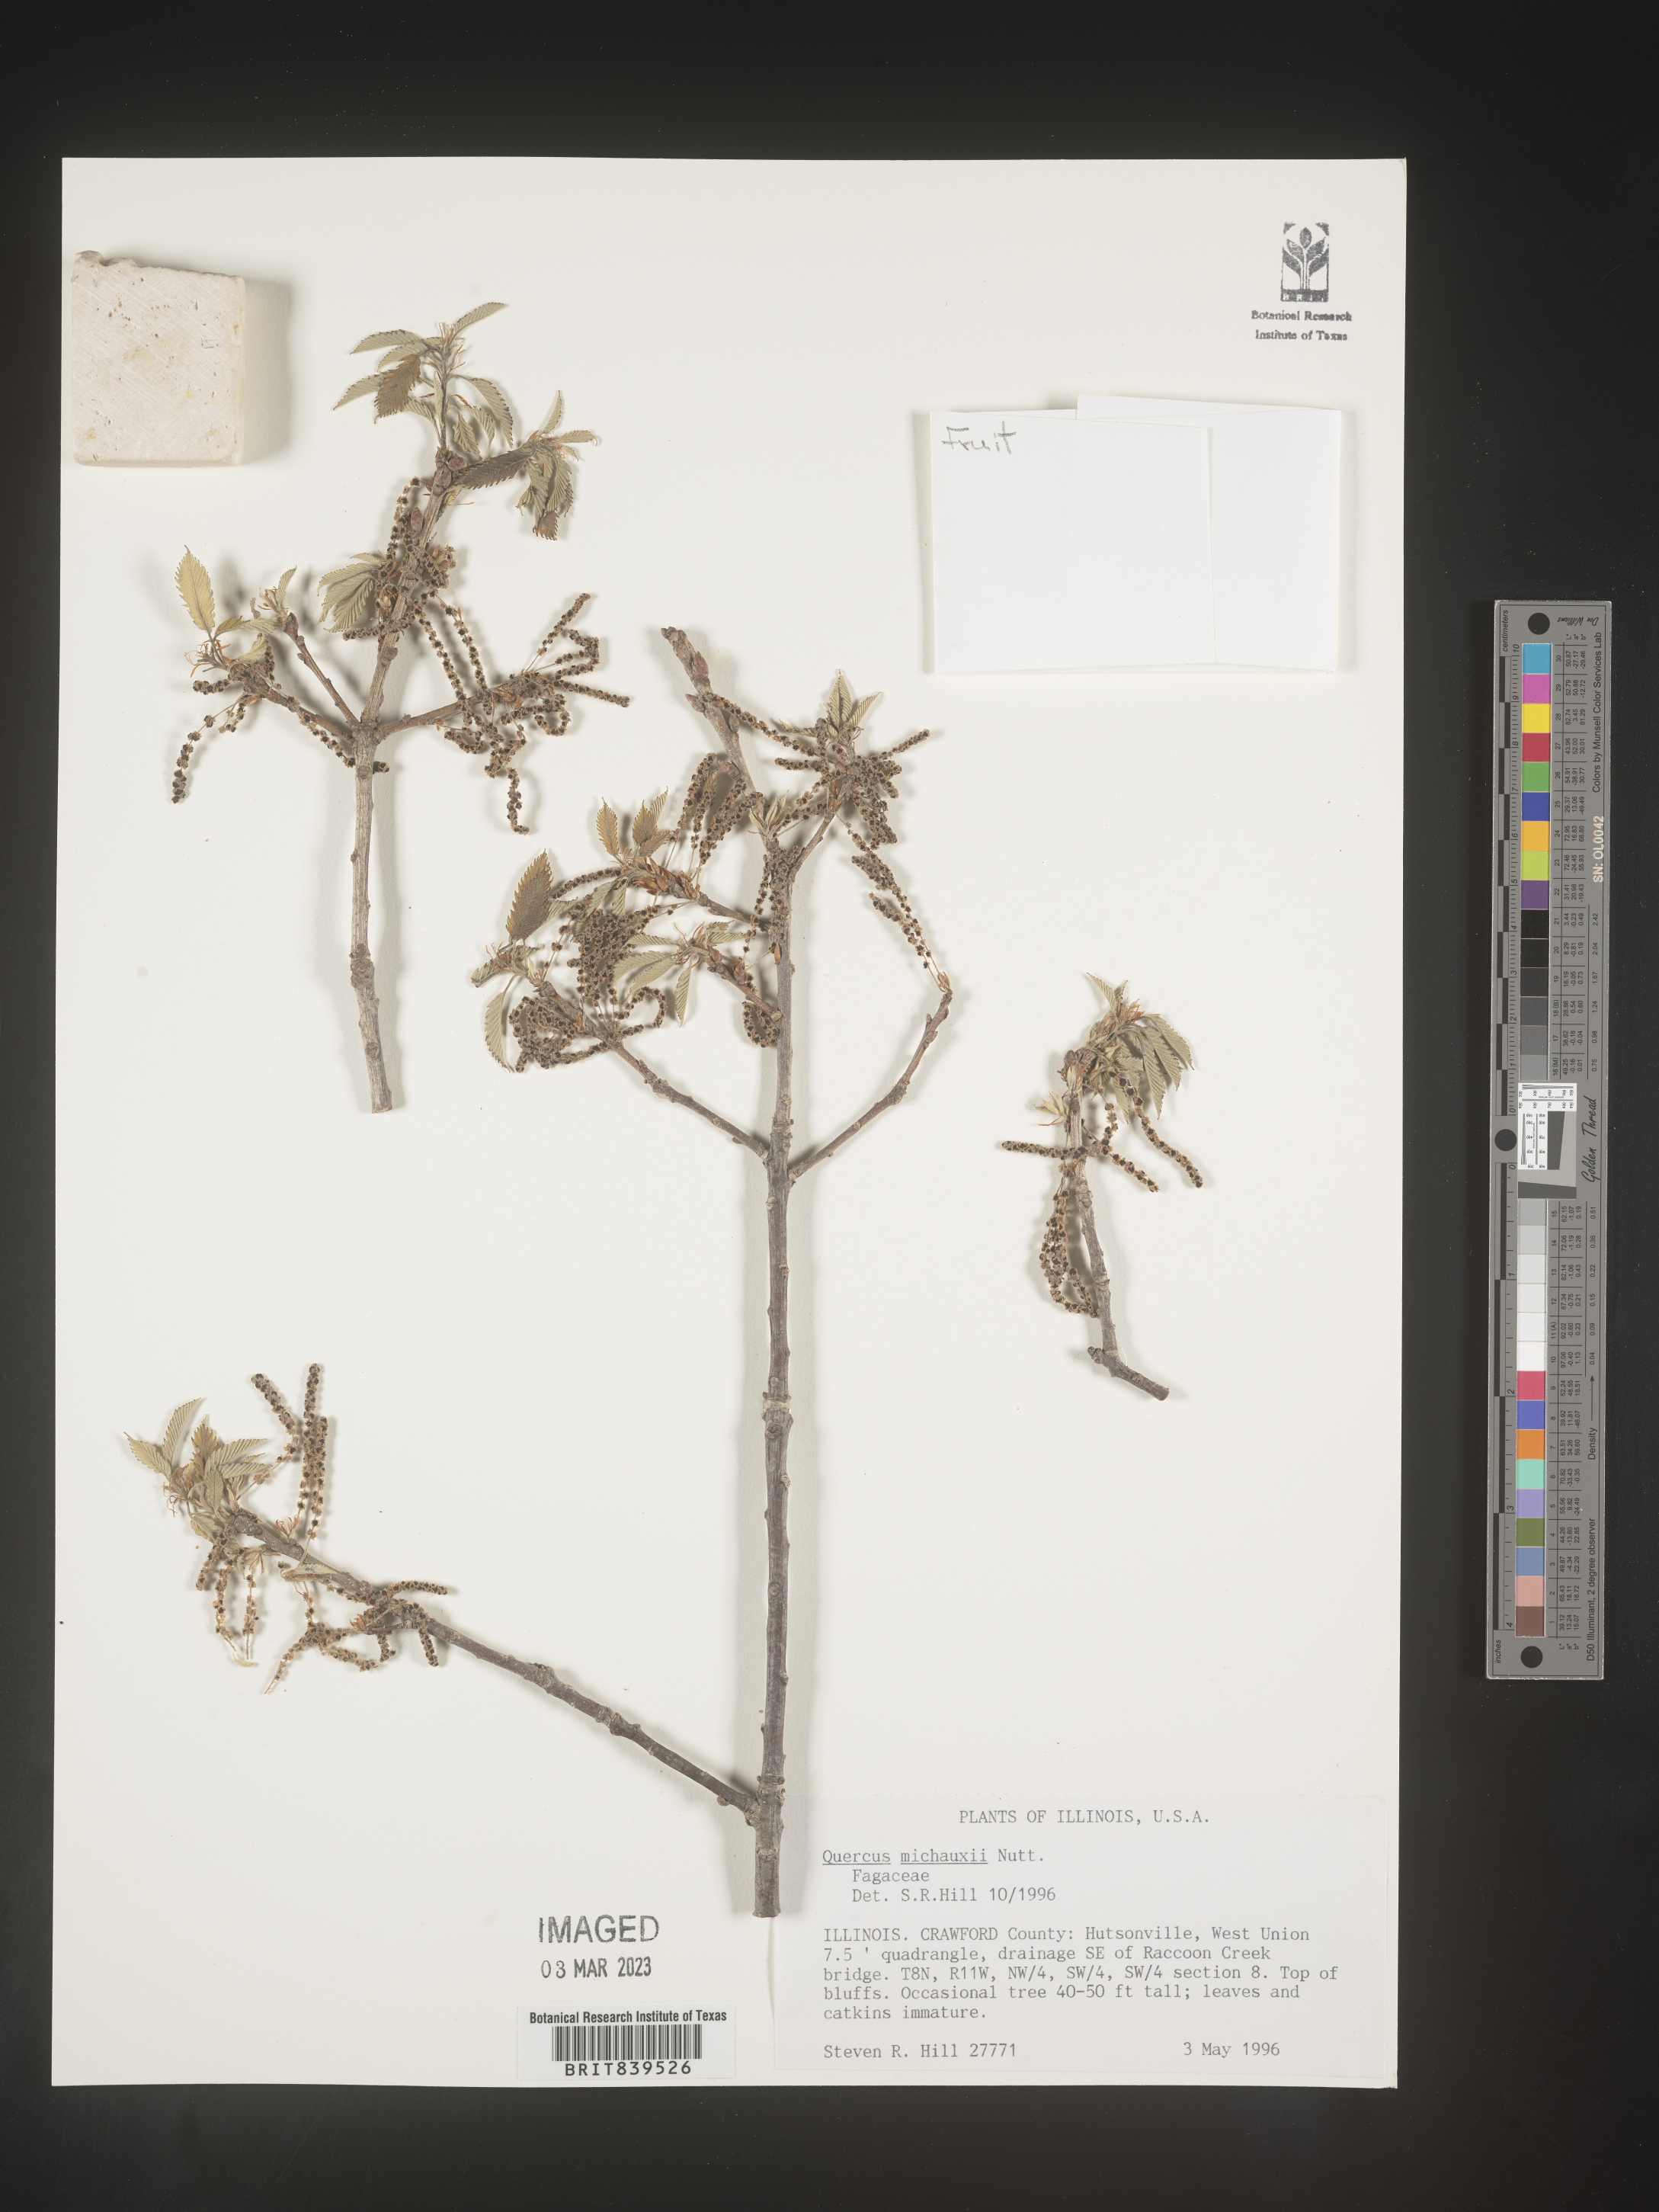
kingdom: Plantae
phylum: Tracheophyta
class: Magnoliopsida
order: Fagales
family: Fagaceae
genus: Quercus
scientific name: Quercus michauxii
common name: Swamp chestnut oak
